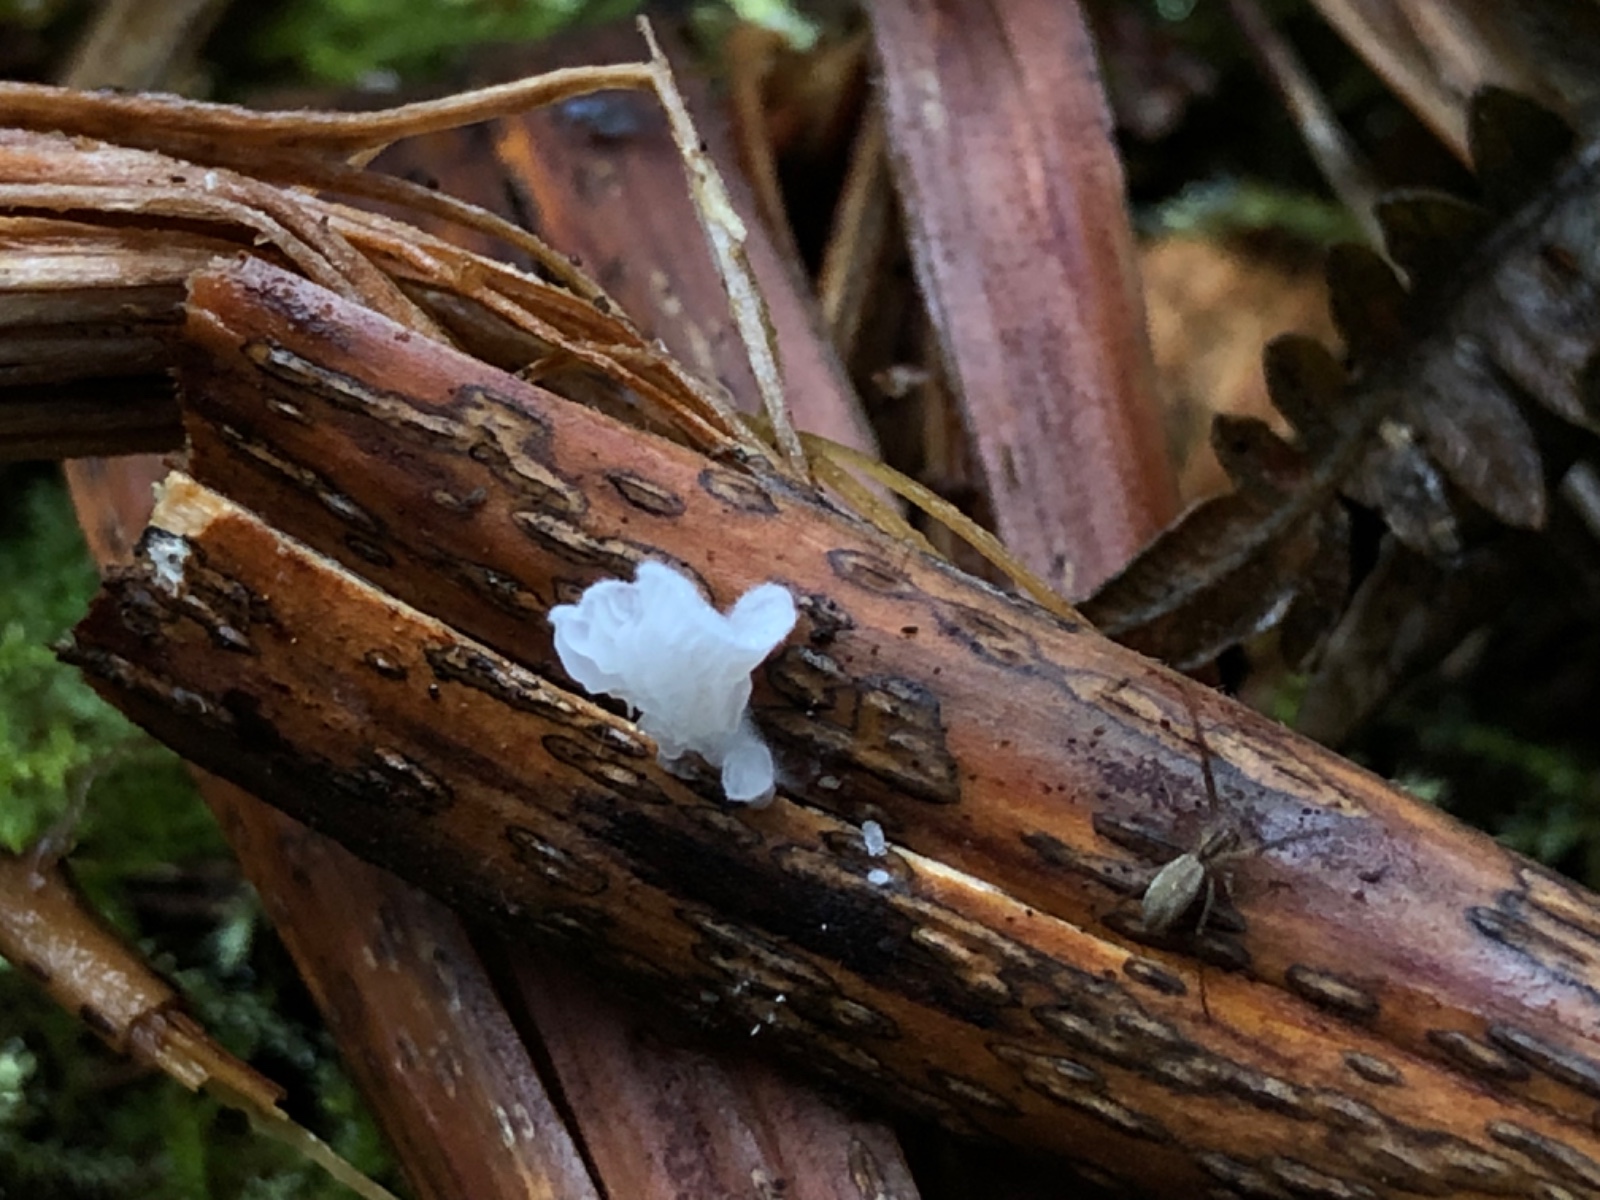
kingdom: Fungi
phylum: Basidiomycota
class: Agaricomycetes
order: Agaricales
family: Entolomataceae
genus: Clitopilus
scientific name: Clitopilus hobsonii
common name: Miller's oysterling
